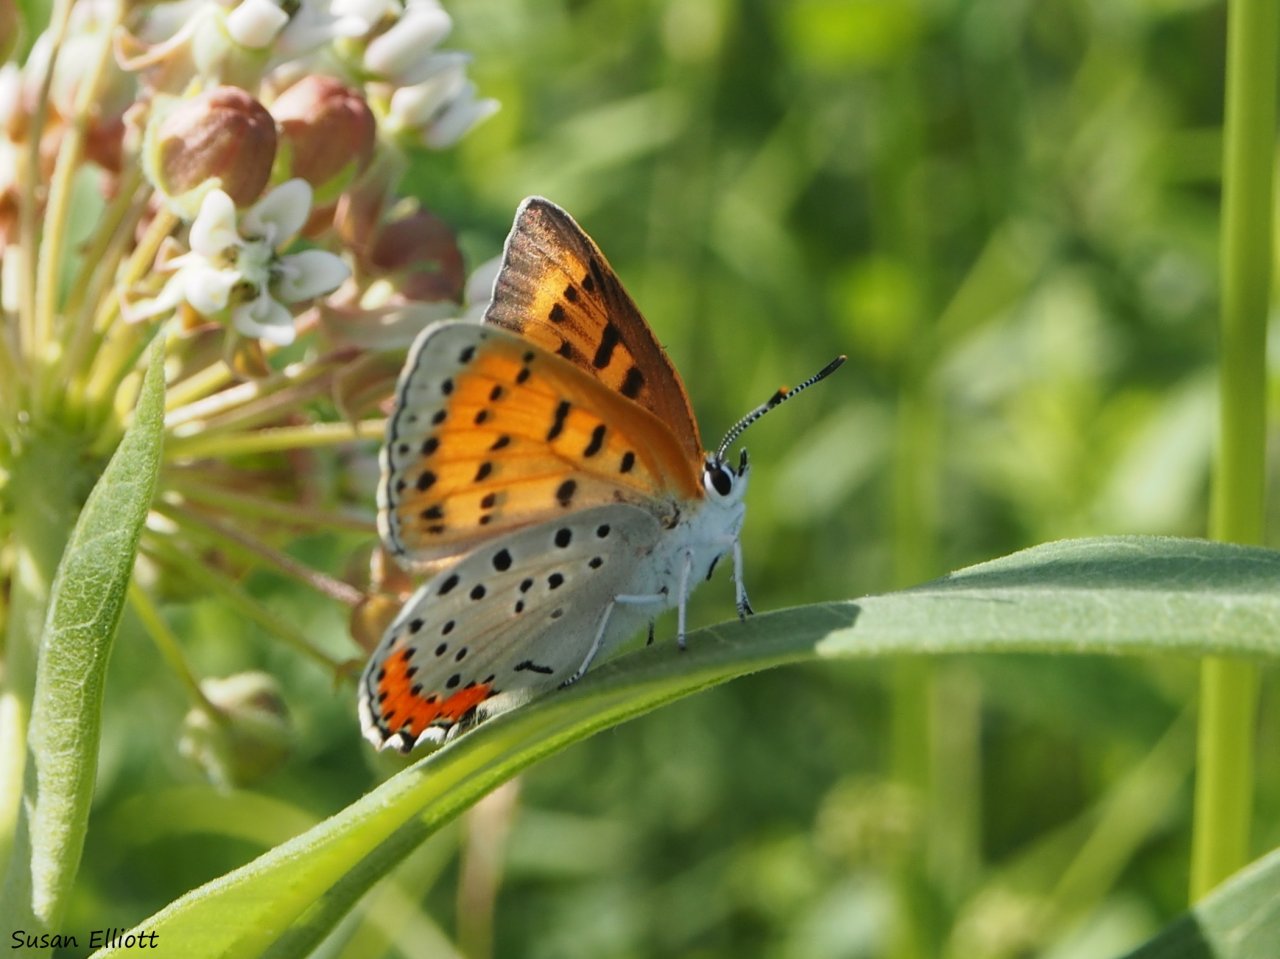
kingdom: Animalia
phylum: Arthropoda
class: Insecta
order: Lepidoptera
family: Sesiidae
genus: Sesia
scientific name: Sesia Lycaena hyllus
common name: Bronze Copper
